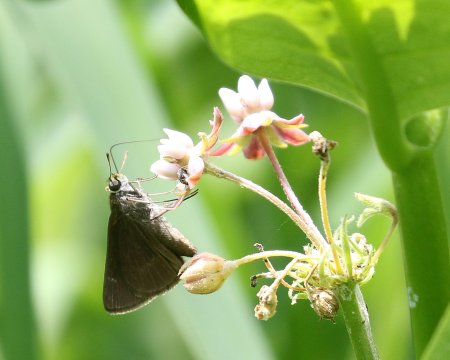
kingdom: Animalia
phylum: Arthropoda
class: Insecta
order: Lepidoptera
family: Hesperiidae
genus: Euphyes
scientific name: Euphyes vestris
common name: Dun Skipper
